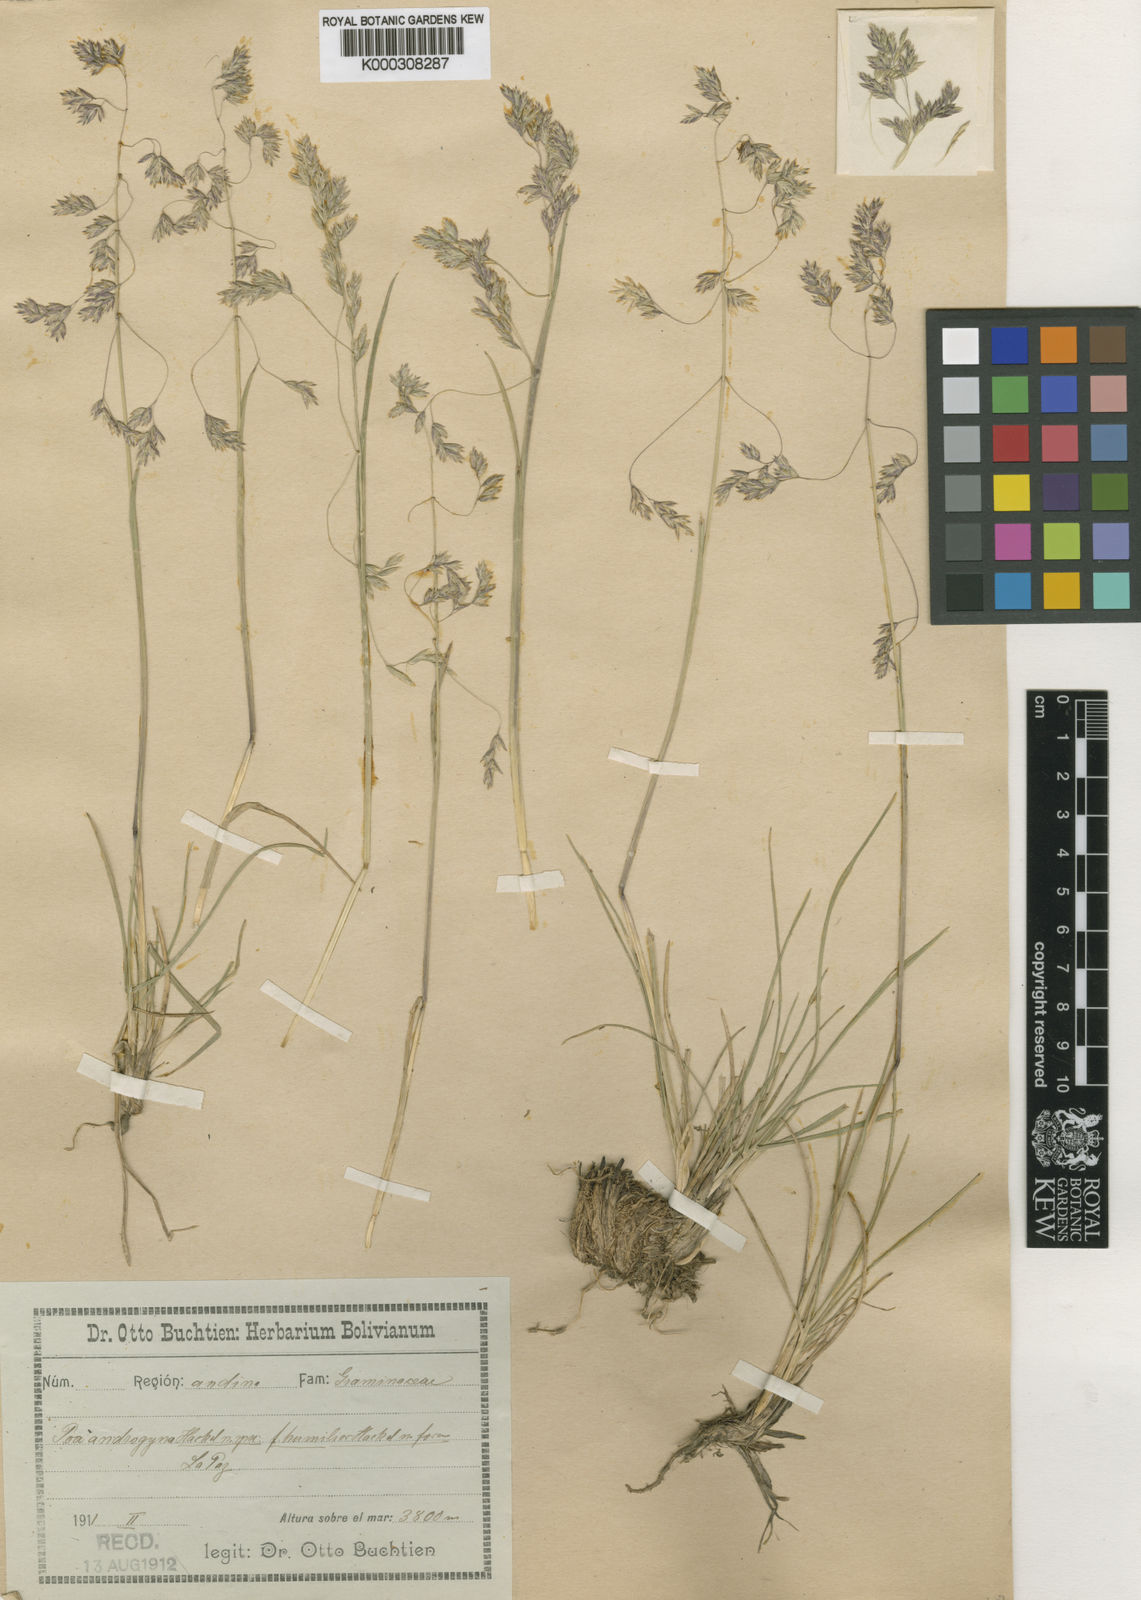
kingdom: Plantae
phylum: Tracheophyta
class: Liliopsida
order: Poales
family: Poaceae
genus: Poa
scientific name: Poa androgyna
